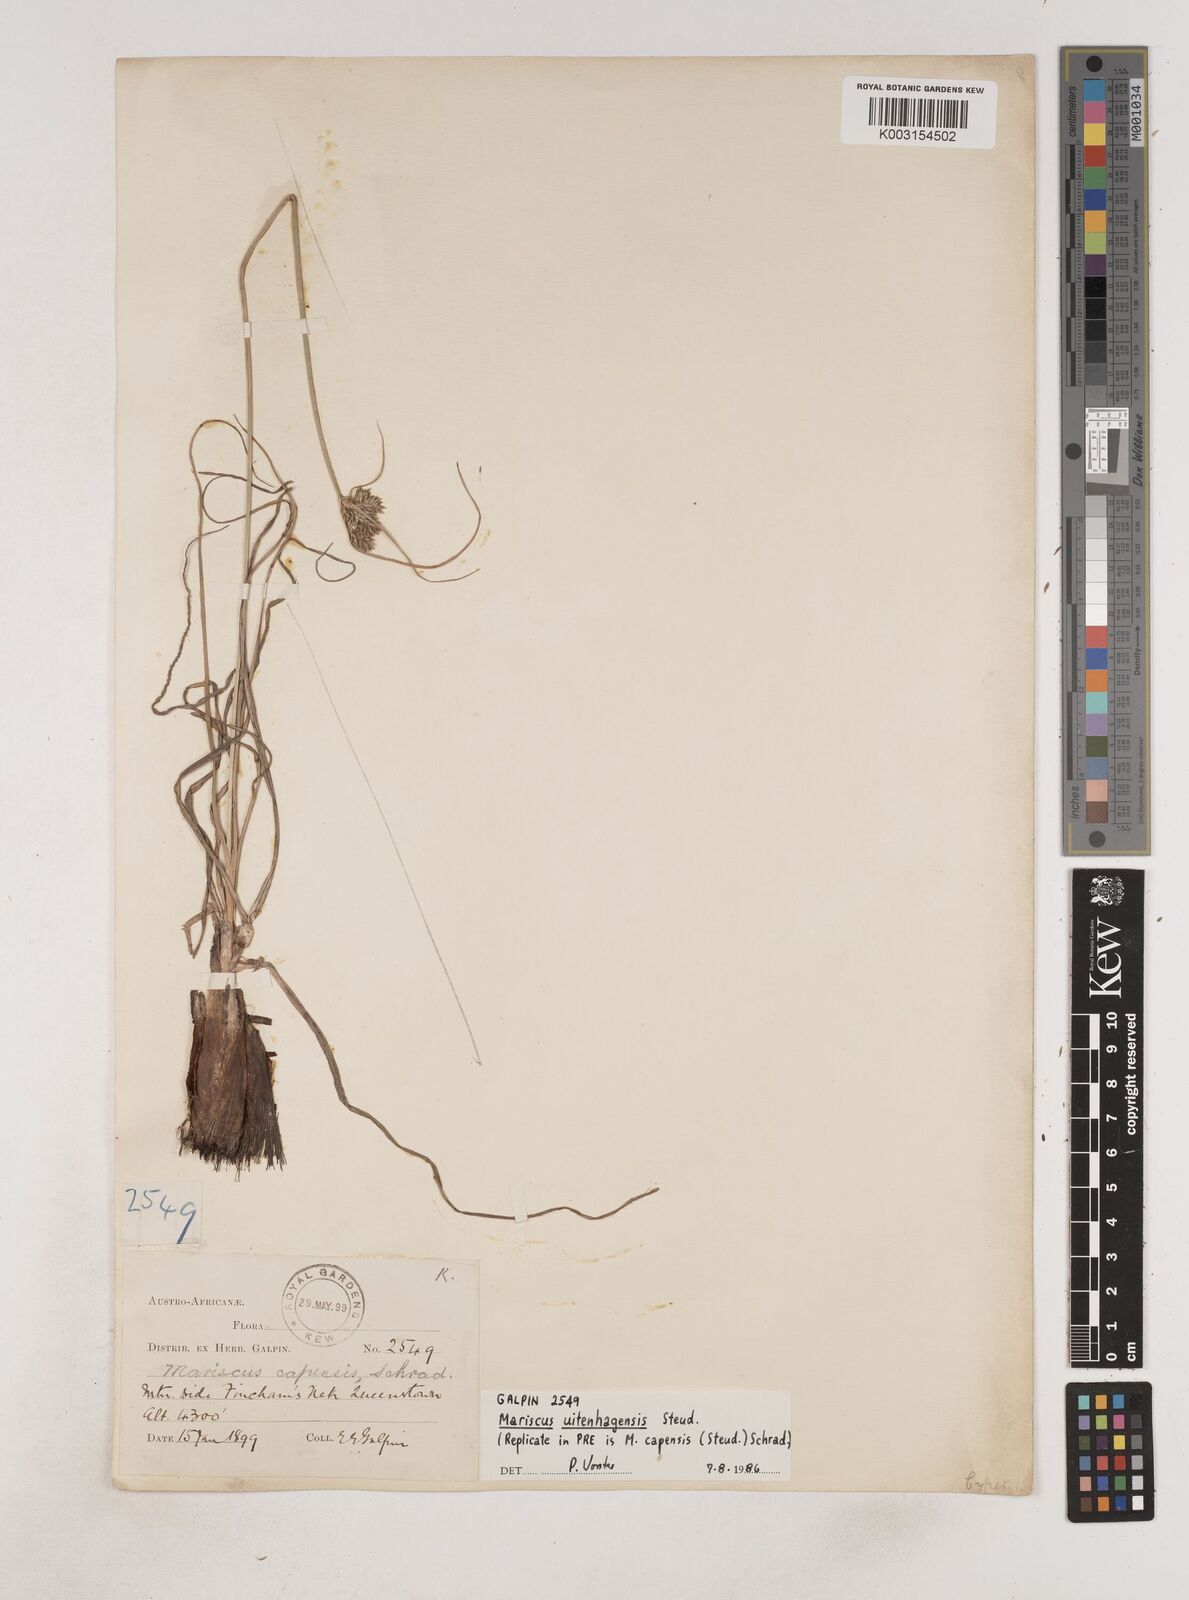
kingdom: Plantae
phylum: Tracheophyta
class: Liliopsida
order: Poales
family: Cyperaceae
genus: Cyperus
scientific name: Cyperus capensis
